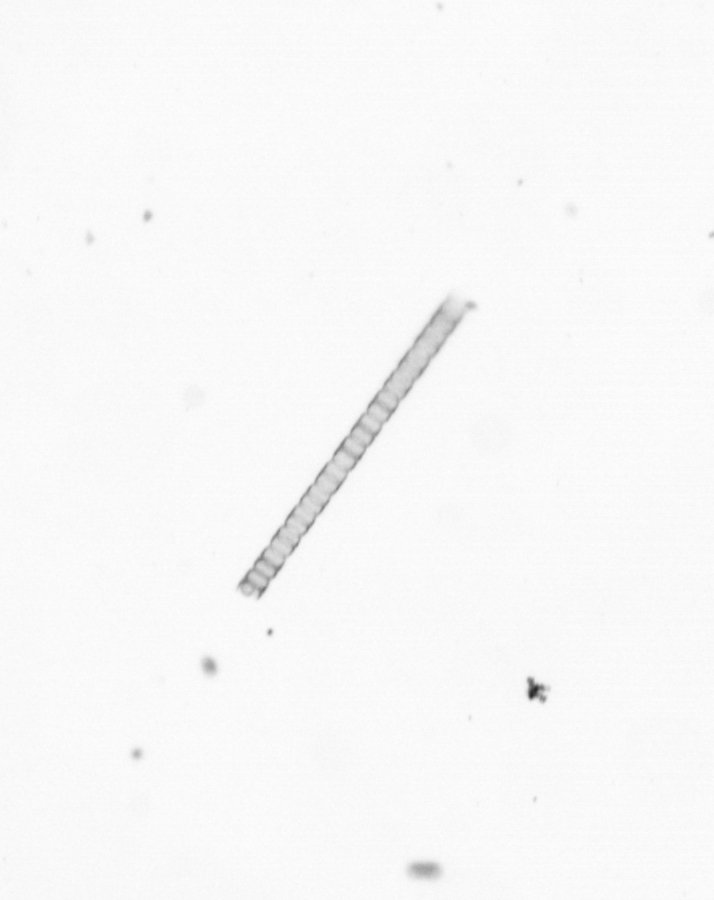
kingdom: Chromista
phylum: Ochrophyta
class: Bacillariophyceae
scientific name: Bacillariophyceae
